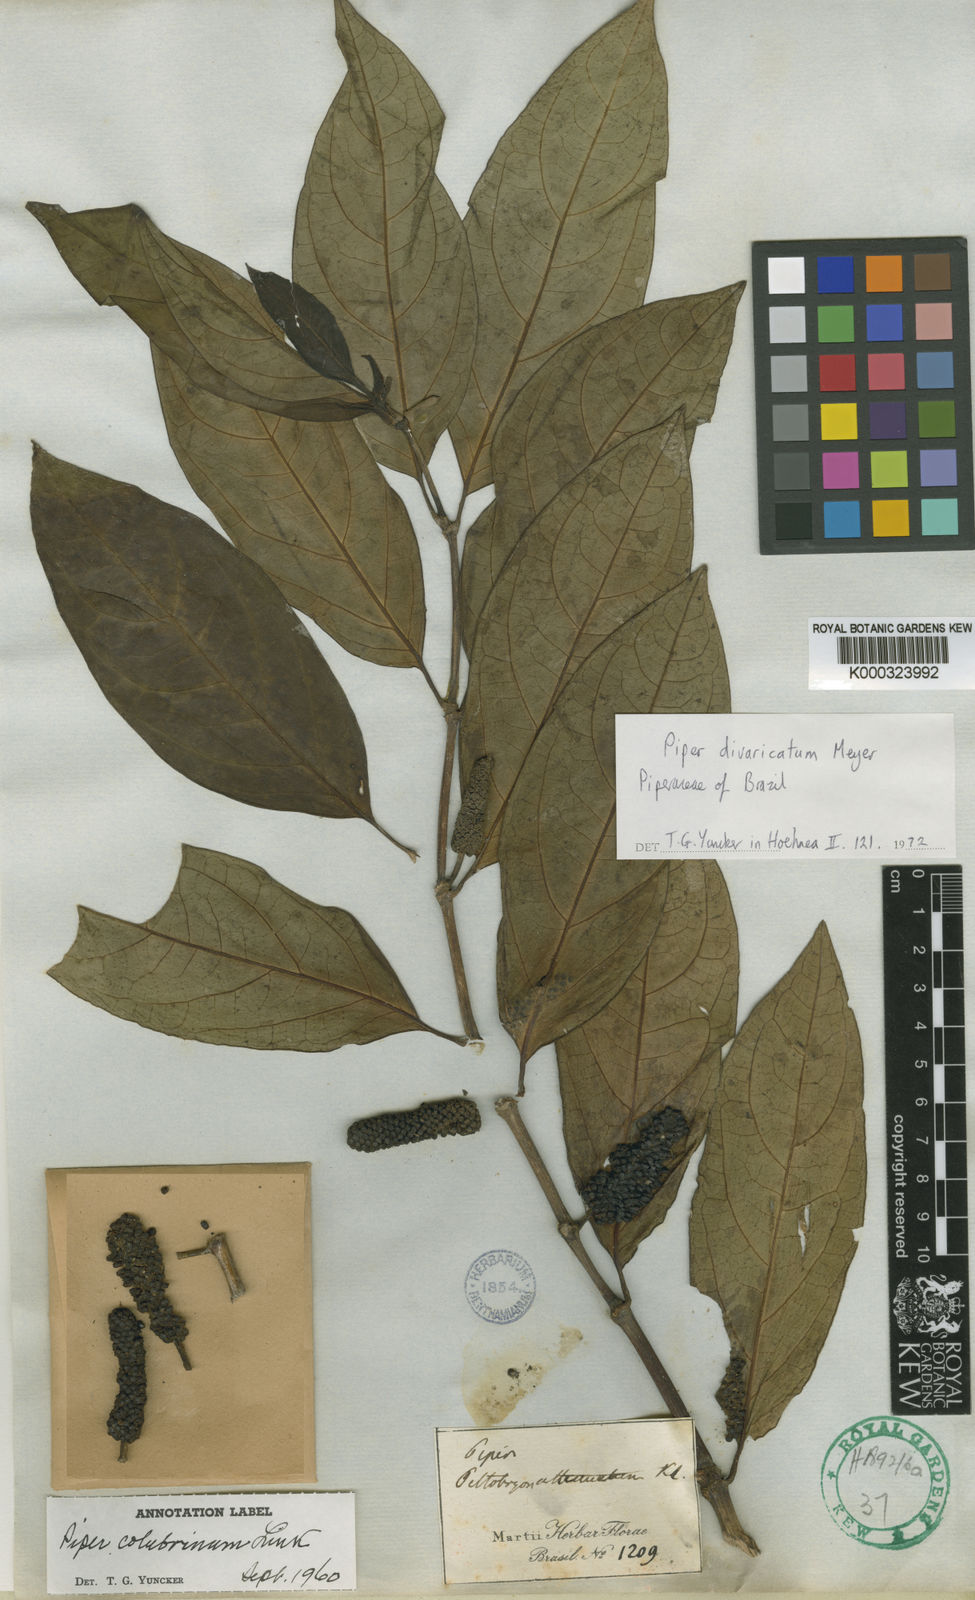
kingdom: Plantae
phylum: Tracheophyta
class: Magnoliopsida
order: Piperales
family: Piperaceae
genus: Piper
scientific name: Piper divaricatum
